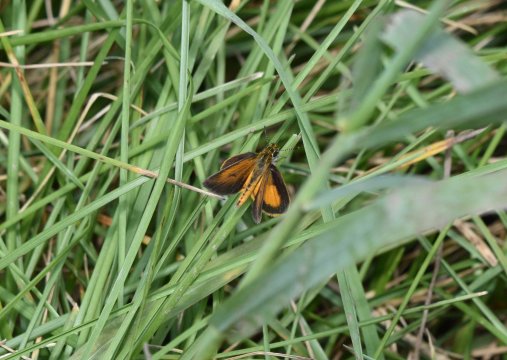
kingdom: Animalia
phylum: Arthropoda
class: Insecta
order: Lepidoptera
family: Hesperiidae
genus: Ancyloxypha
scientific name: Ancyloxypha numitor
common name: Least Skipper
